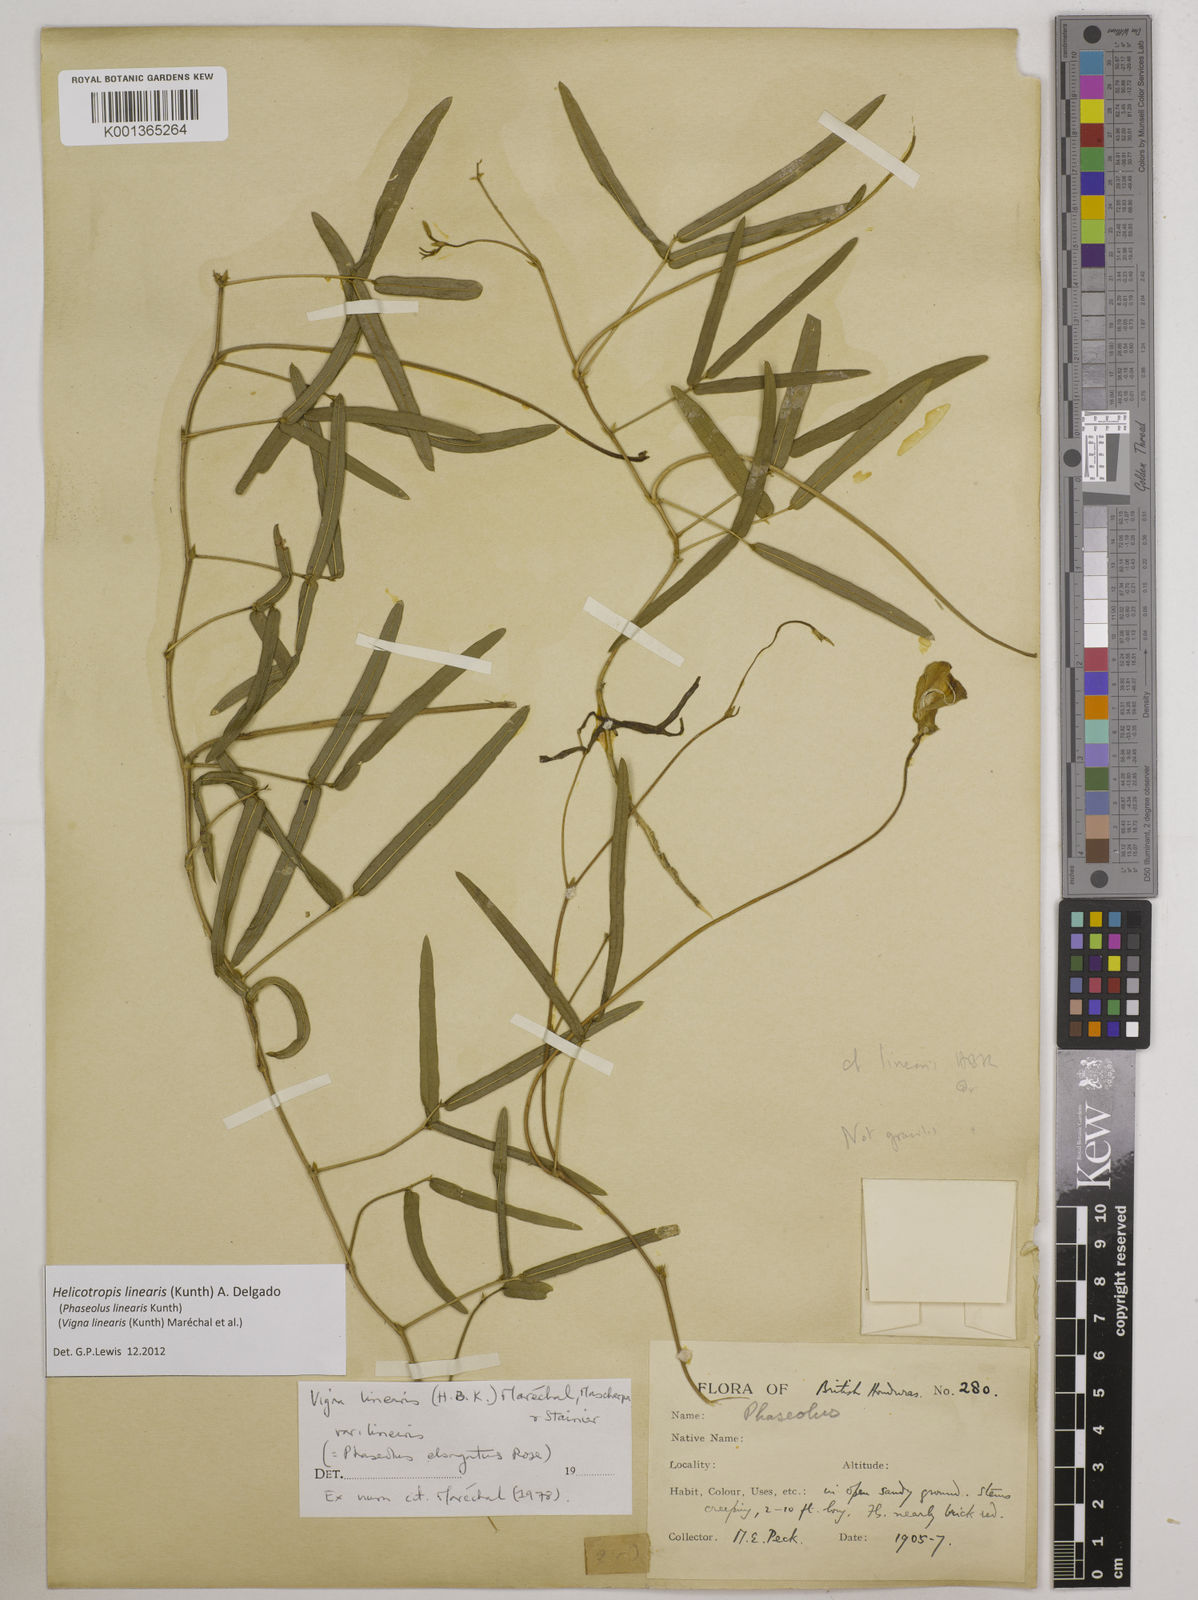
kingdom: Plantae
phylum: Tracheophyta
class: Magnoliopsida
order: Fabales
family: Fabaceae
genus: Helicotropis
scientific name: Helicotropis linearis
